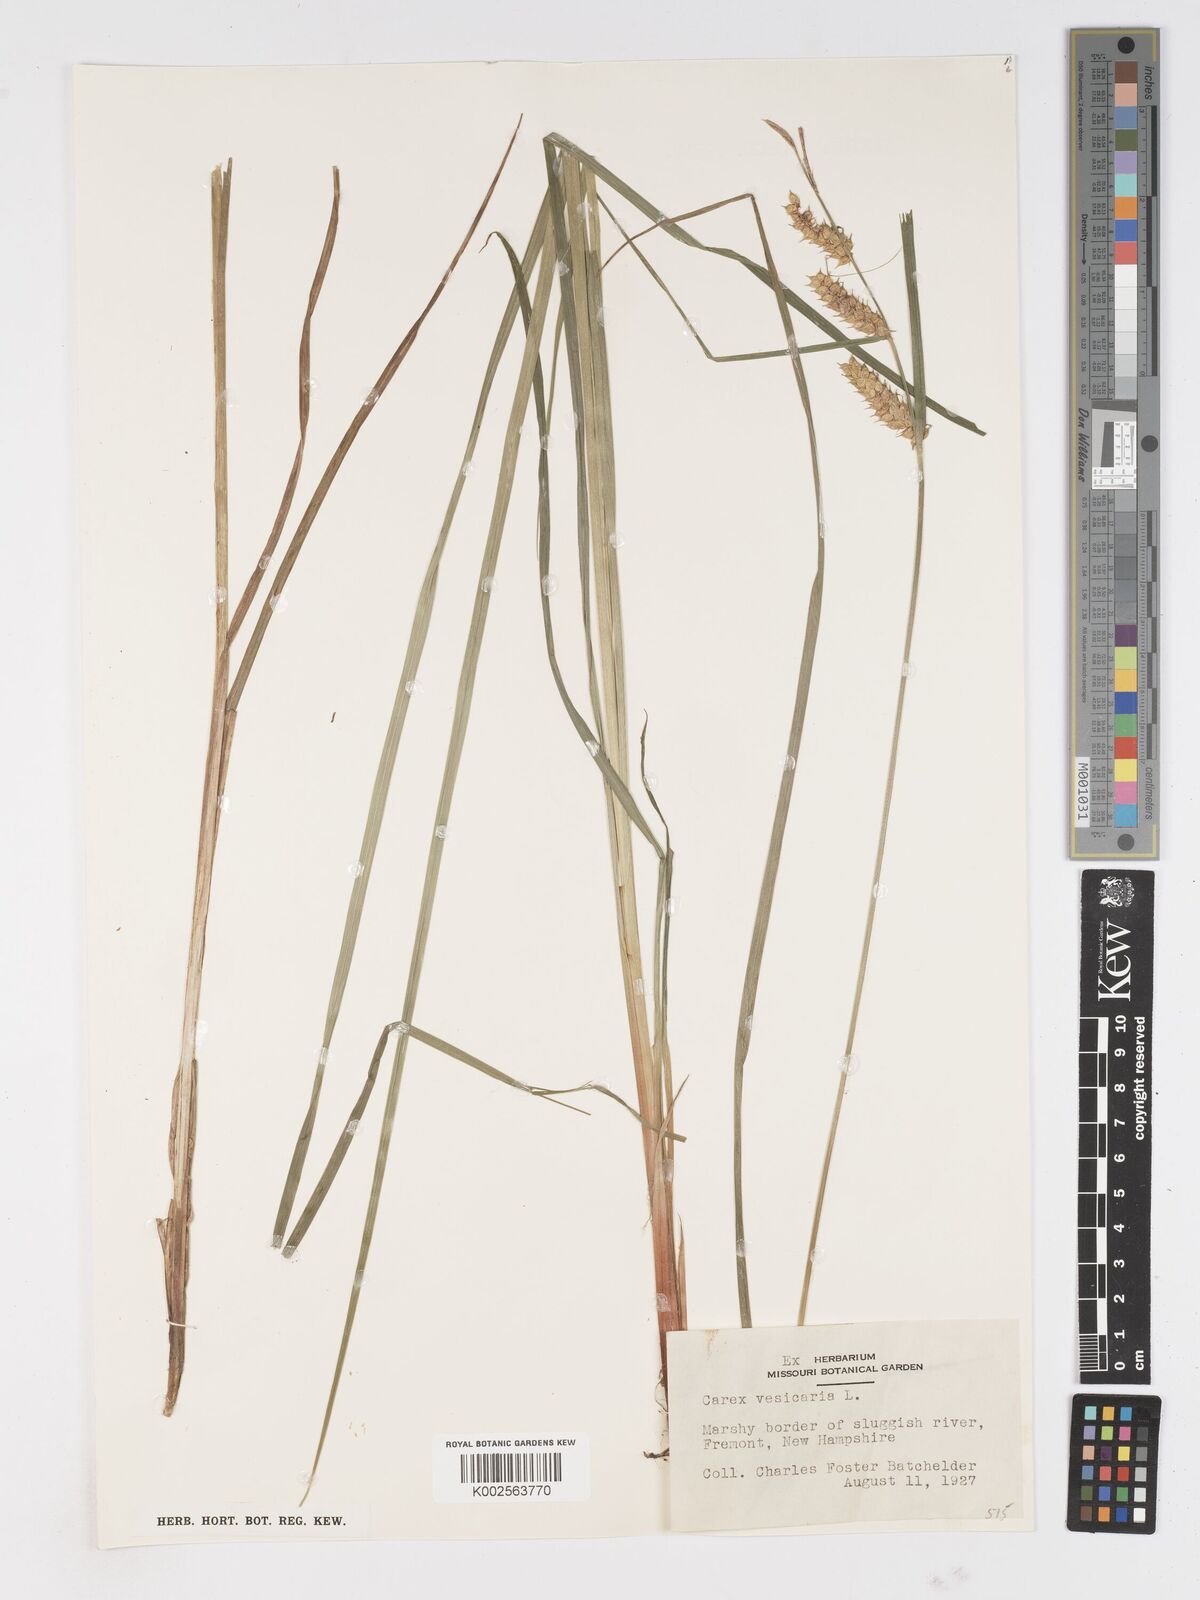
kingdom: Plantae
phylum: Tracheophyta
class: Liliopsida
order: Poales
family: Cyperaceae
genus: Carex
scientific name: Carex vesicaria
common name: Bladder-sedge
